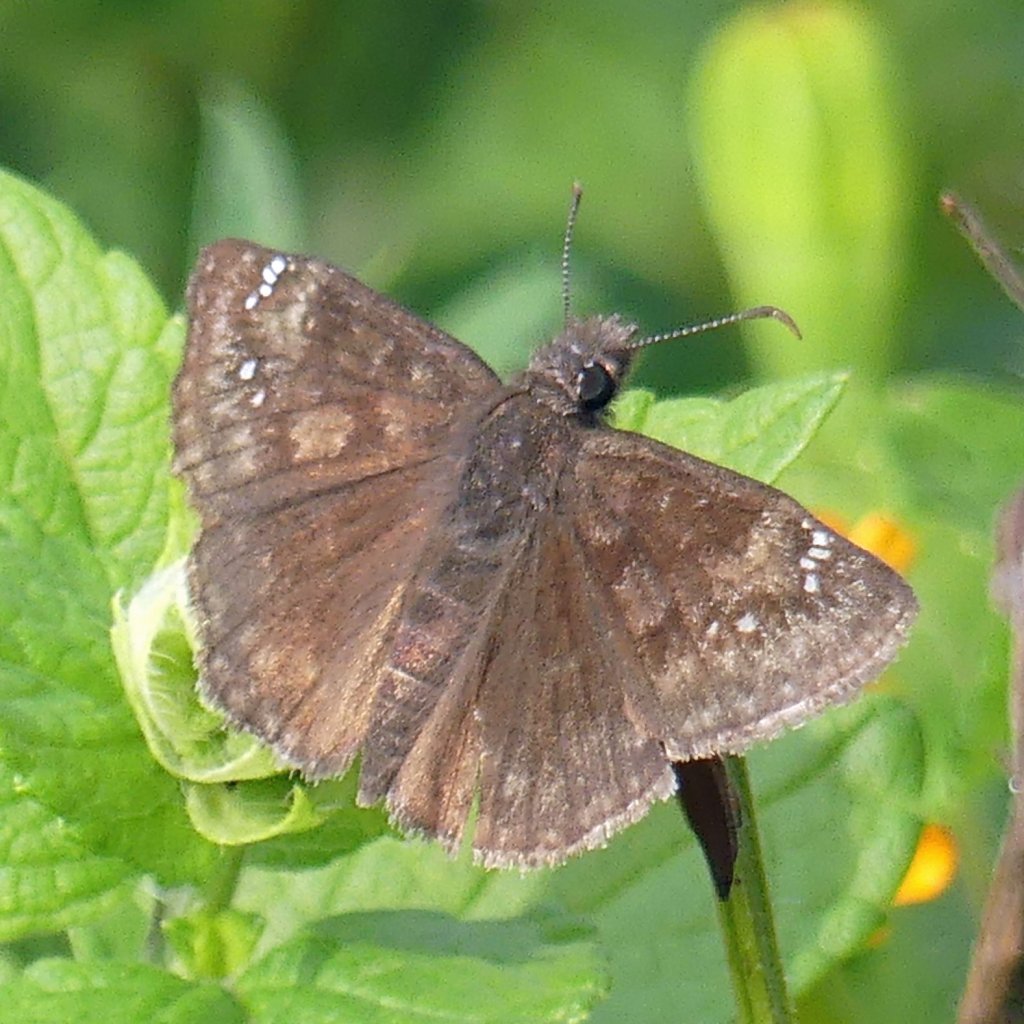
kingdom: Animalia
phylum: Arthropoda
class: Insecta
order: Lepidoptera
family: Hesperiidae
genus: Gesta
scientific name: Gesta
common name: Wild Indigo Duskywing
